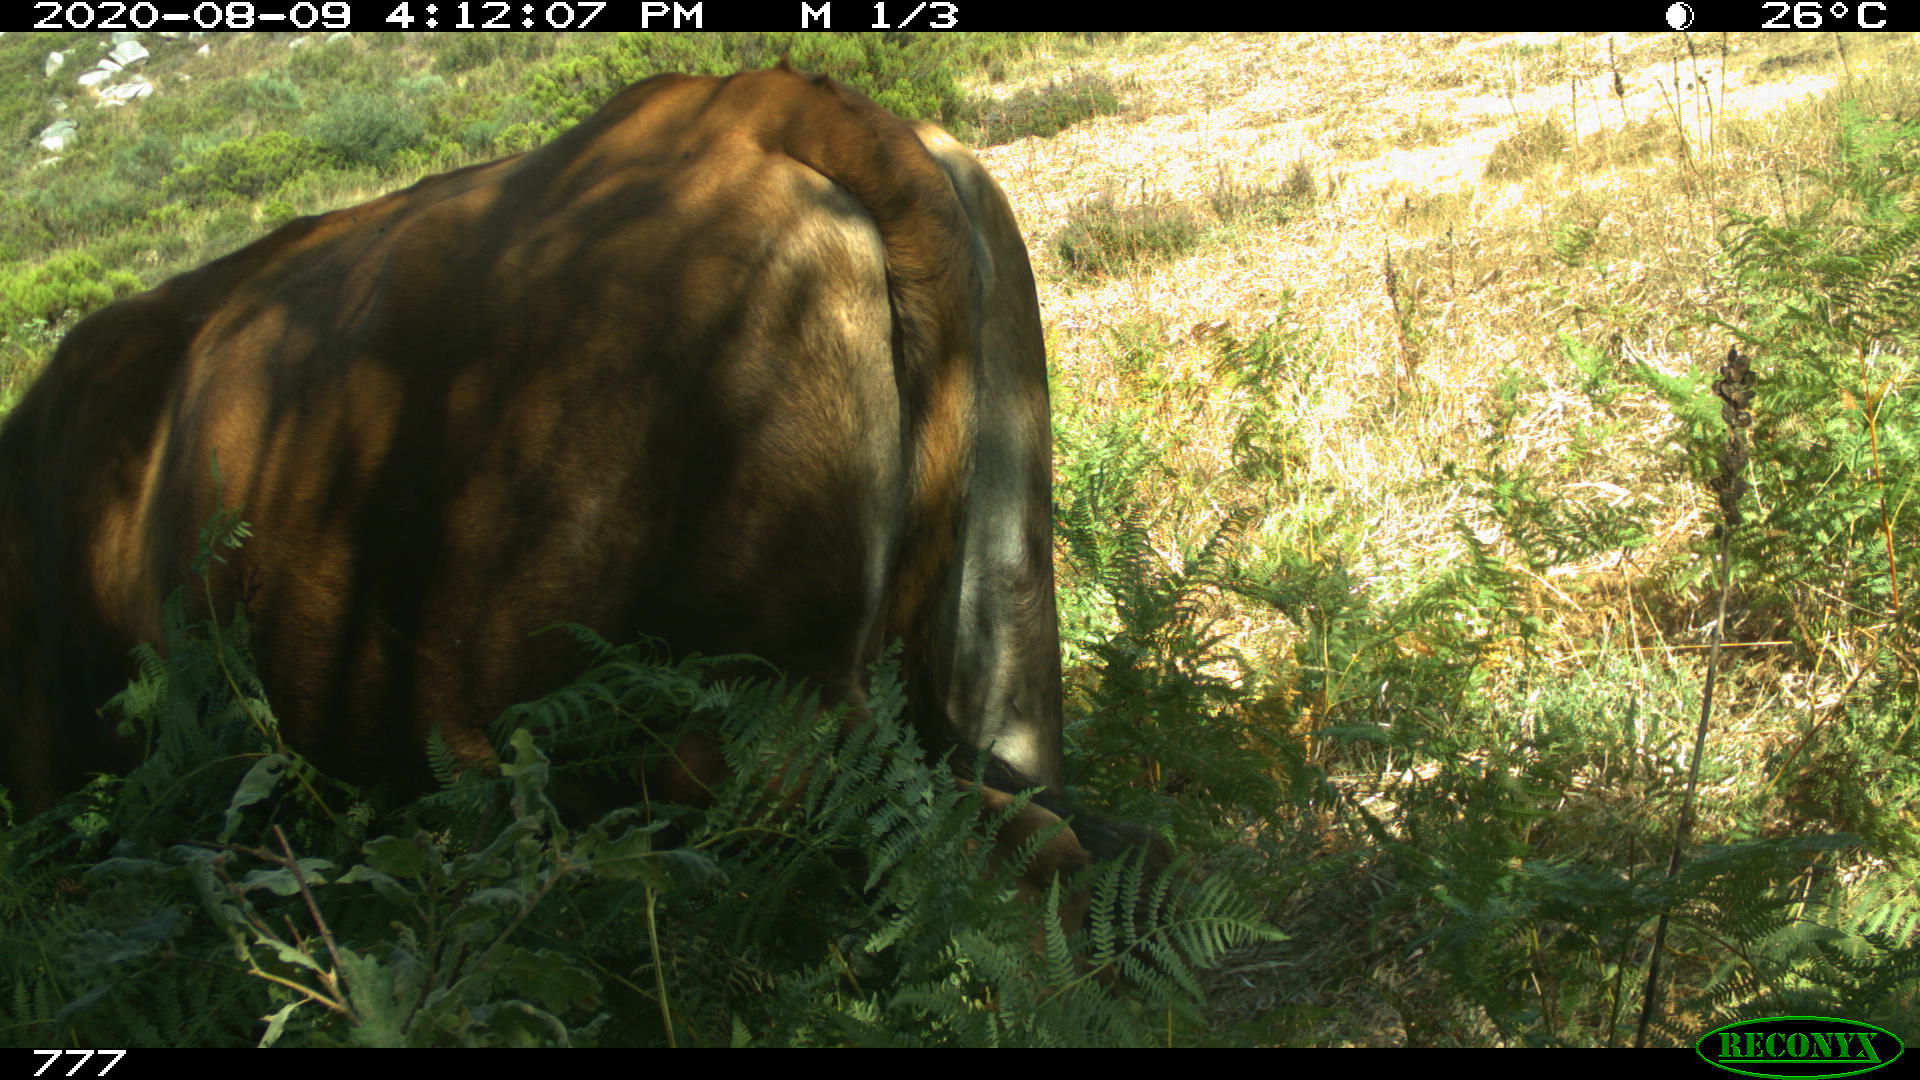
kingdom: Animalia
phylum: Chordata
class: Mammalia
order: Artiodactyla
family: Bovidae
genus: Bos
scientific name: Bos taurus
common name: Domesticated cattle
